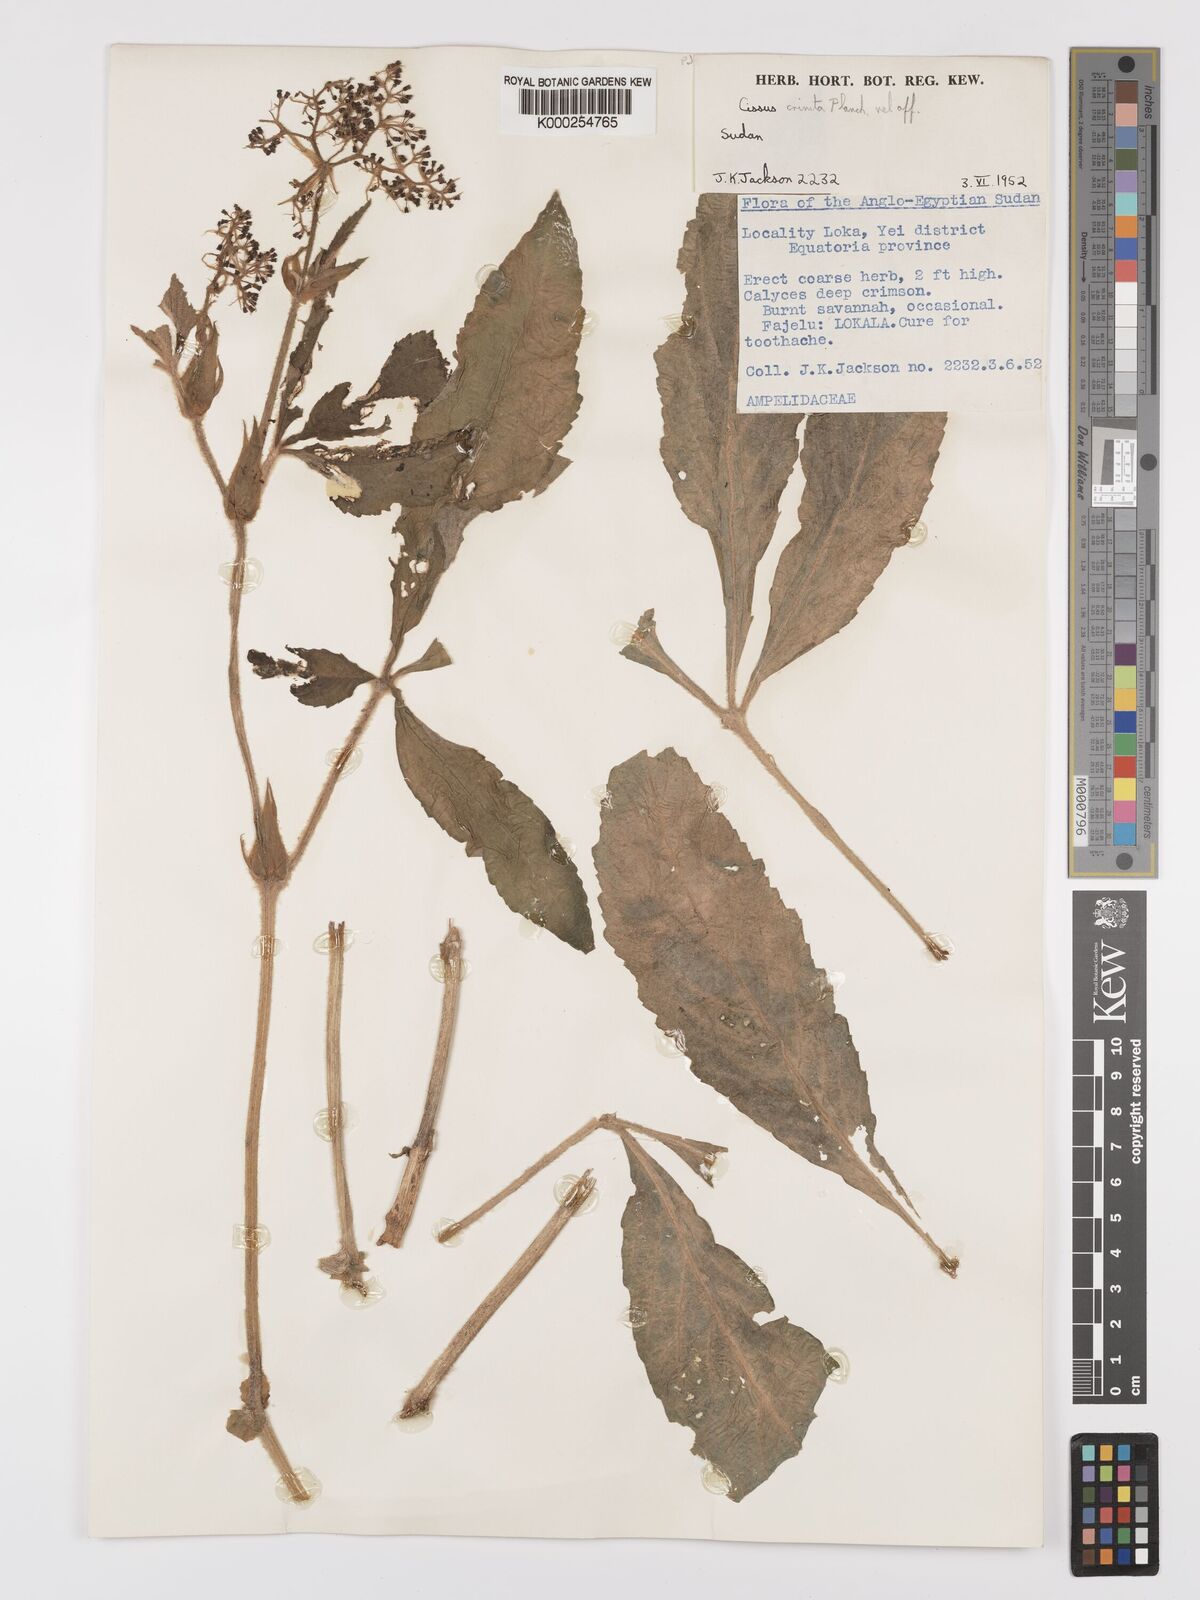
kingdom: Plantae
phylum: Tracheophyta
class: Magnoliopsida
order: Vitales
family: Vitaceae
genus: Cyphostemma
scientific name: Cyphostemma crinitum
